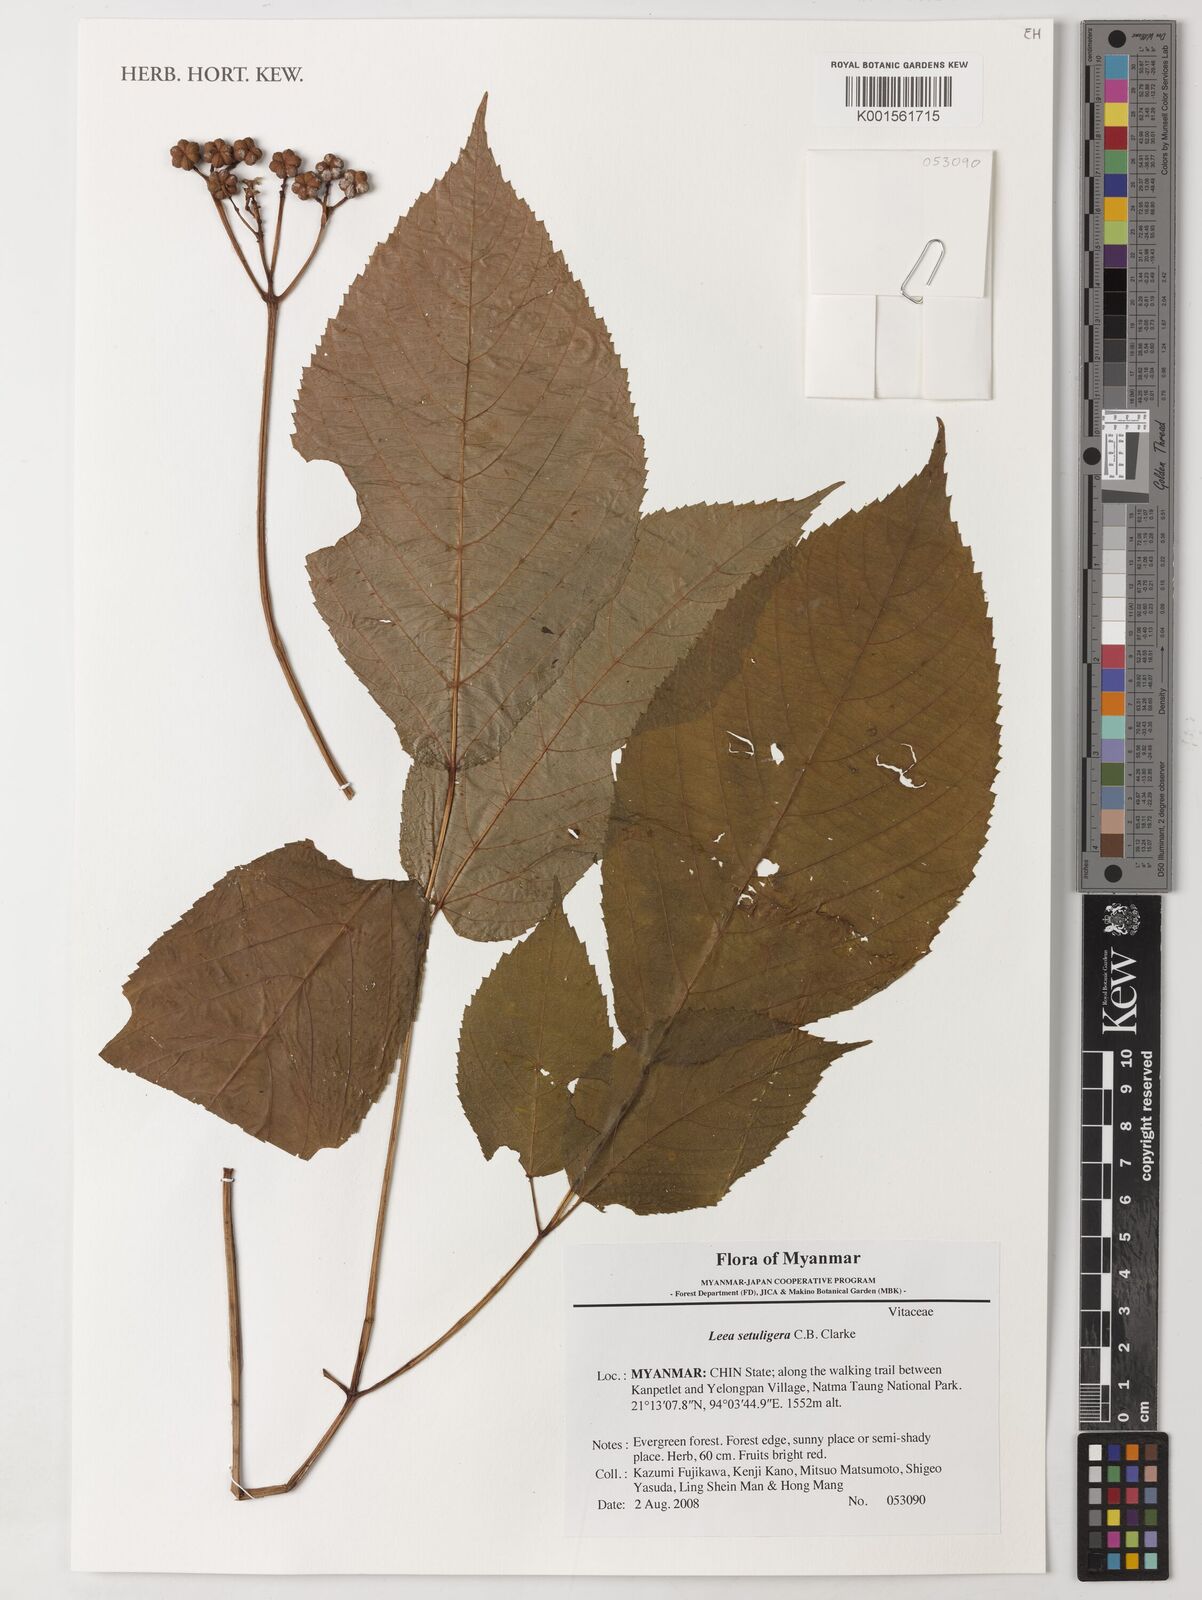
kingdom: Plantae
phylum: Tracheophyta
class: Magnoliopsida
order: Vitales
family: Vitaceae
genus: Leea
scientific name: Leea setuligera
